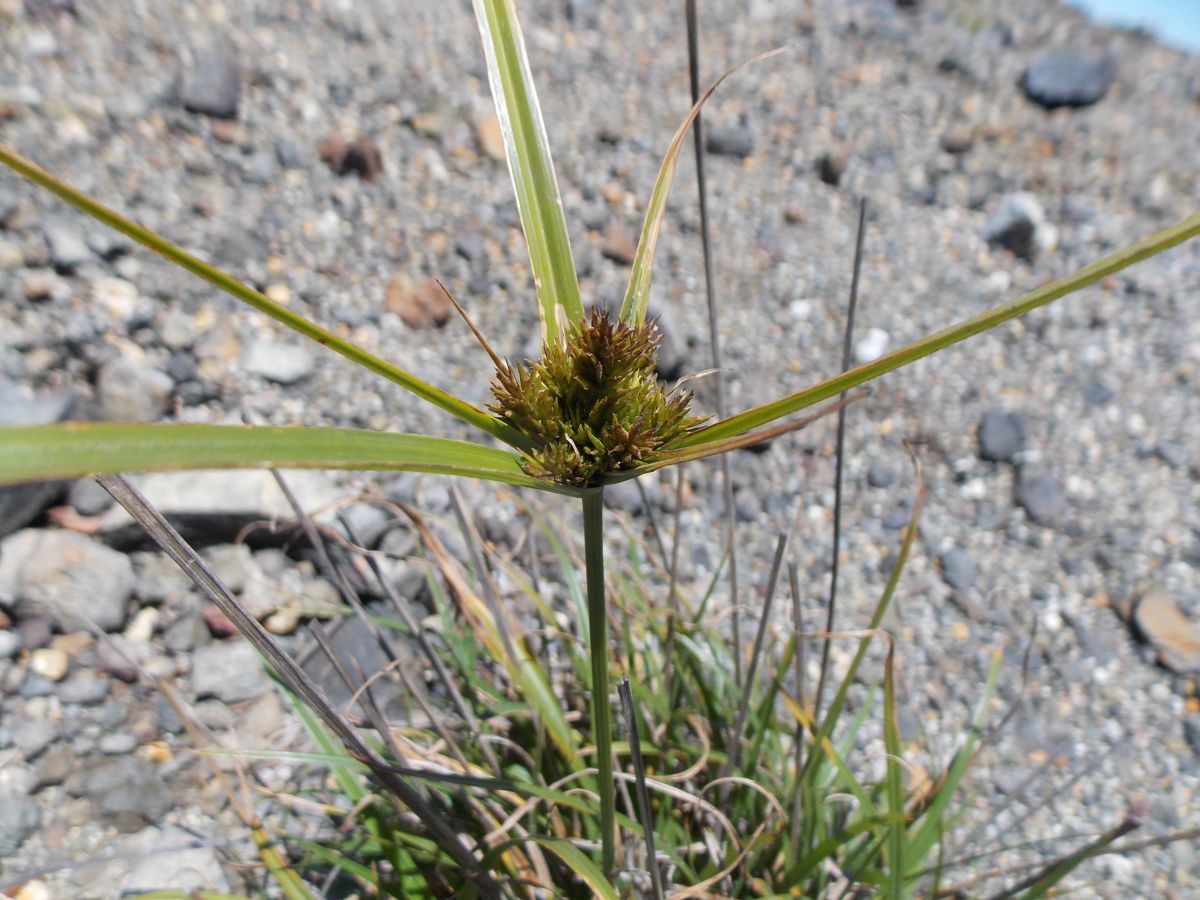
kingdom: Plantae
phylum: Tracheophyta
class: Liliopsida
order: Poales
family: Cyperaceae
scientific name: Cyperaceae
